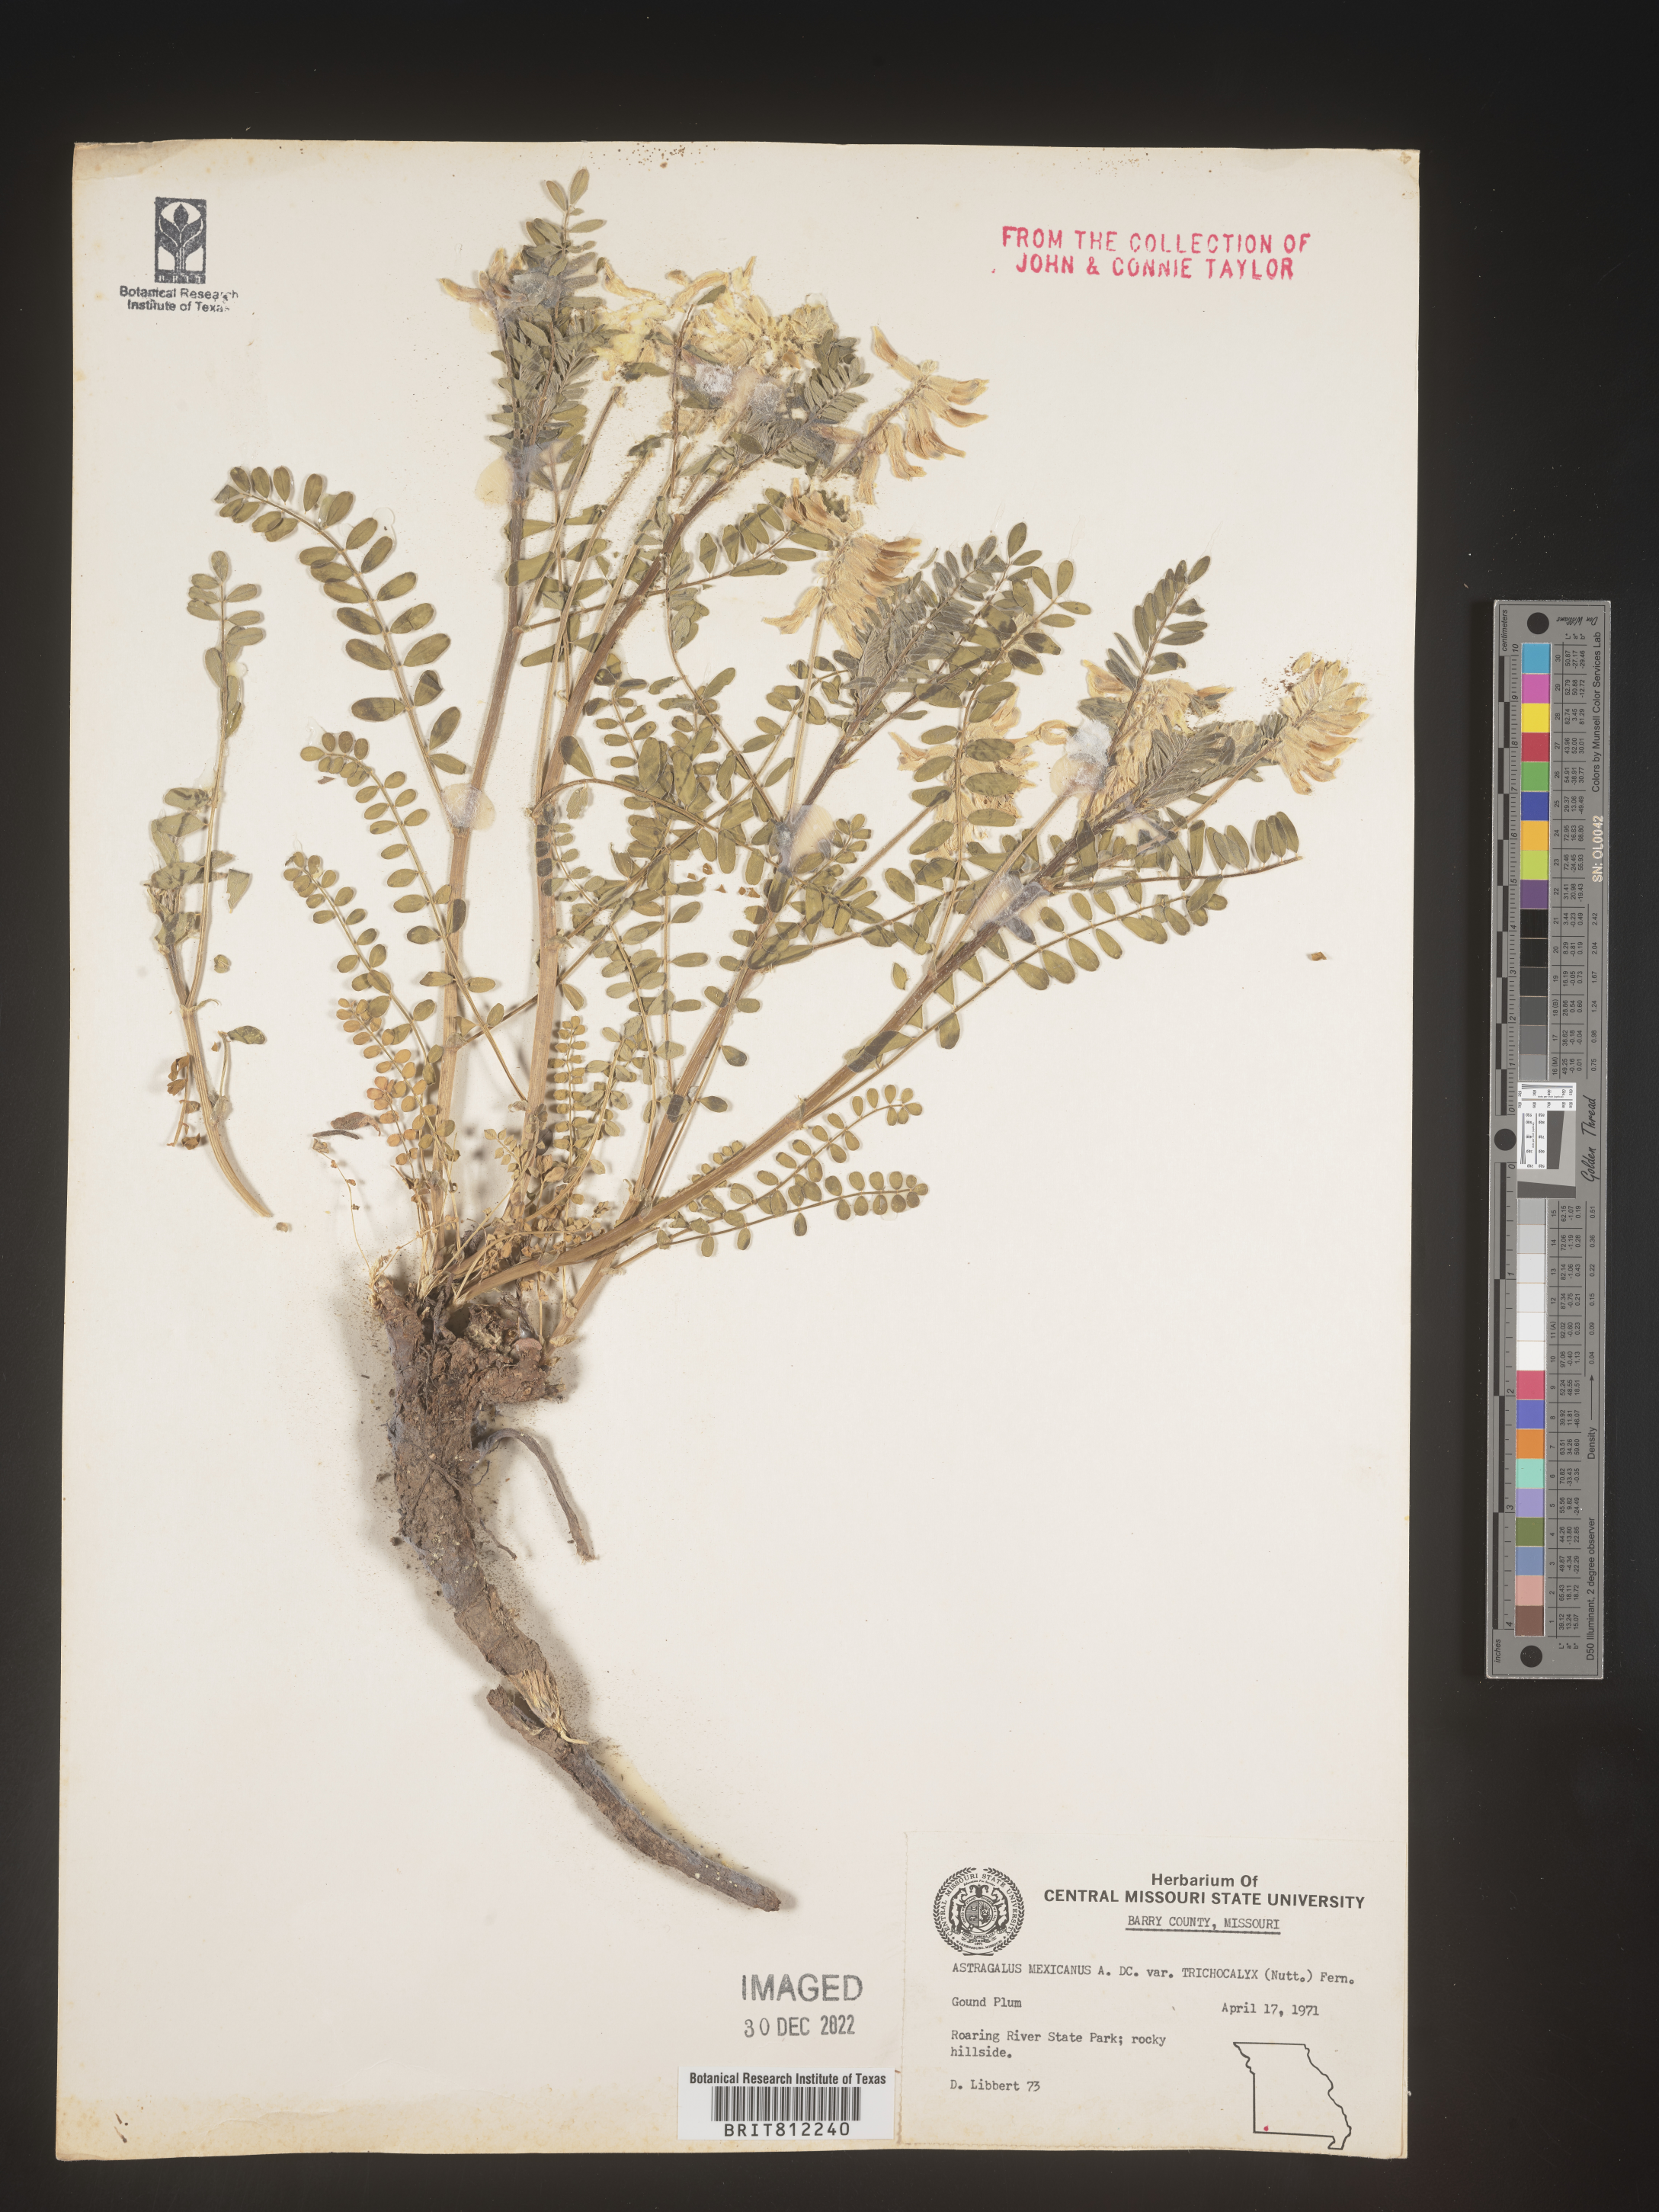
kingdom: Plantae
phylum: Tracheophyta
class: Magnoliopsida
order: Fabales
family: Fabaceae
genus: Astragalus
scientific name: Astragalus
